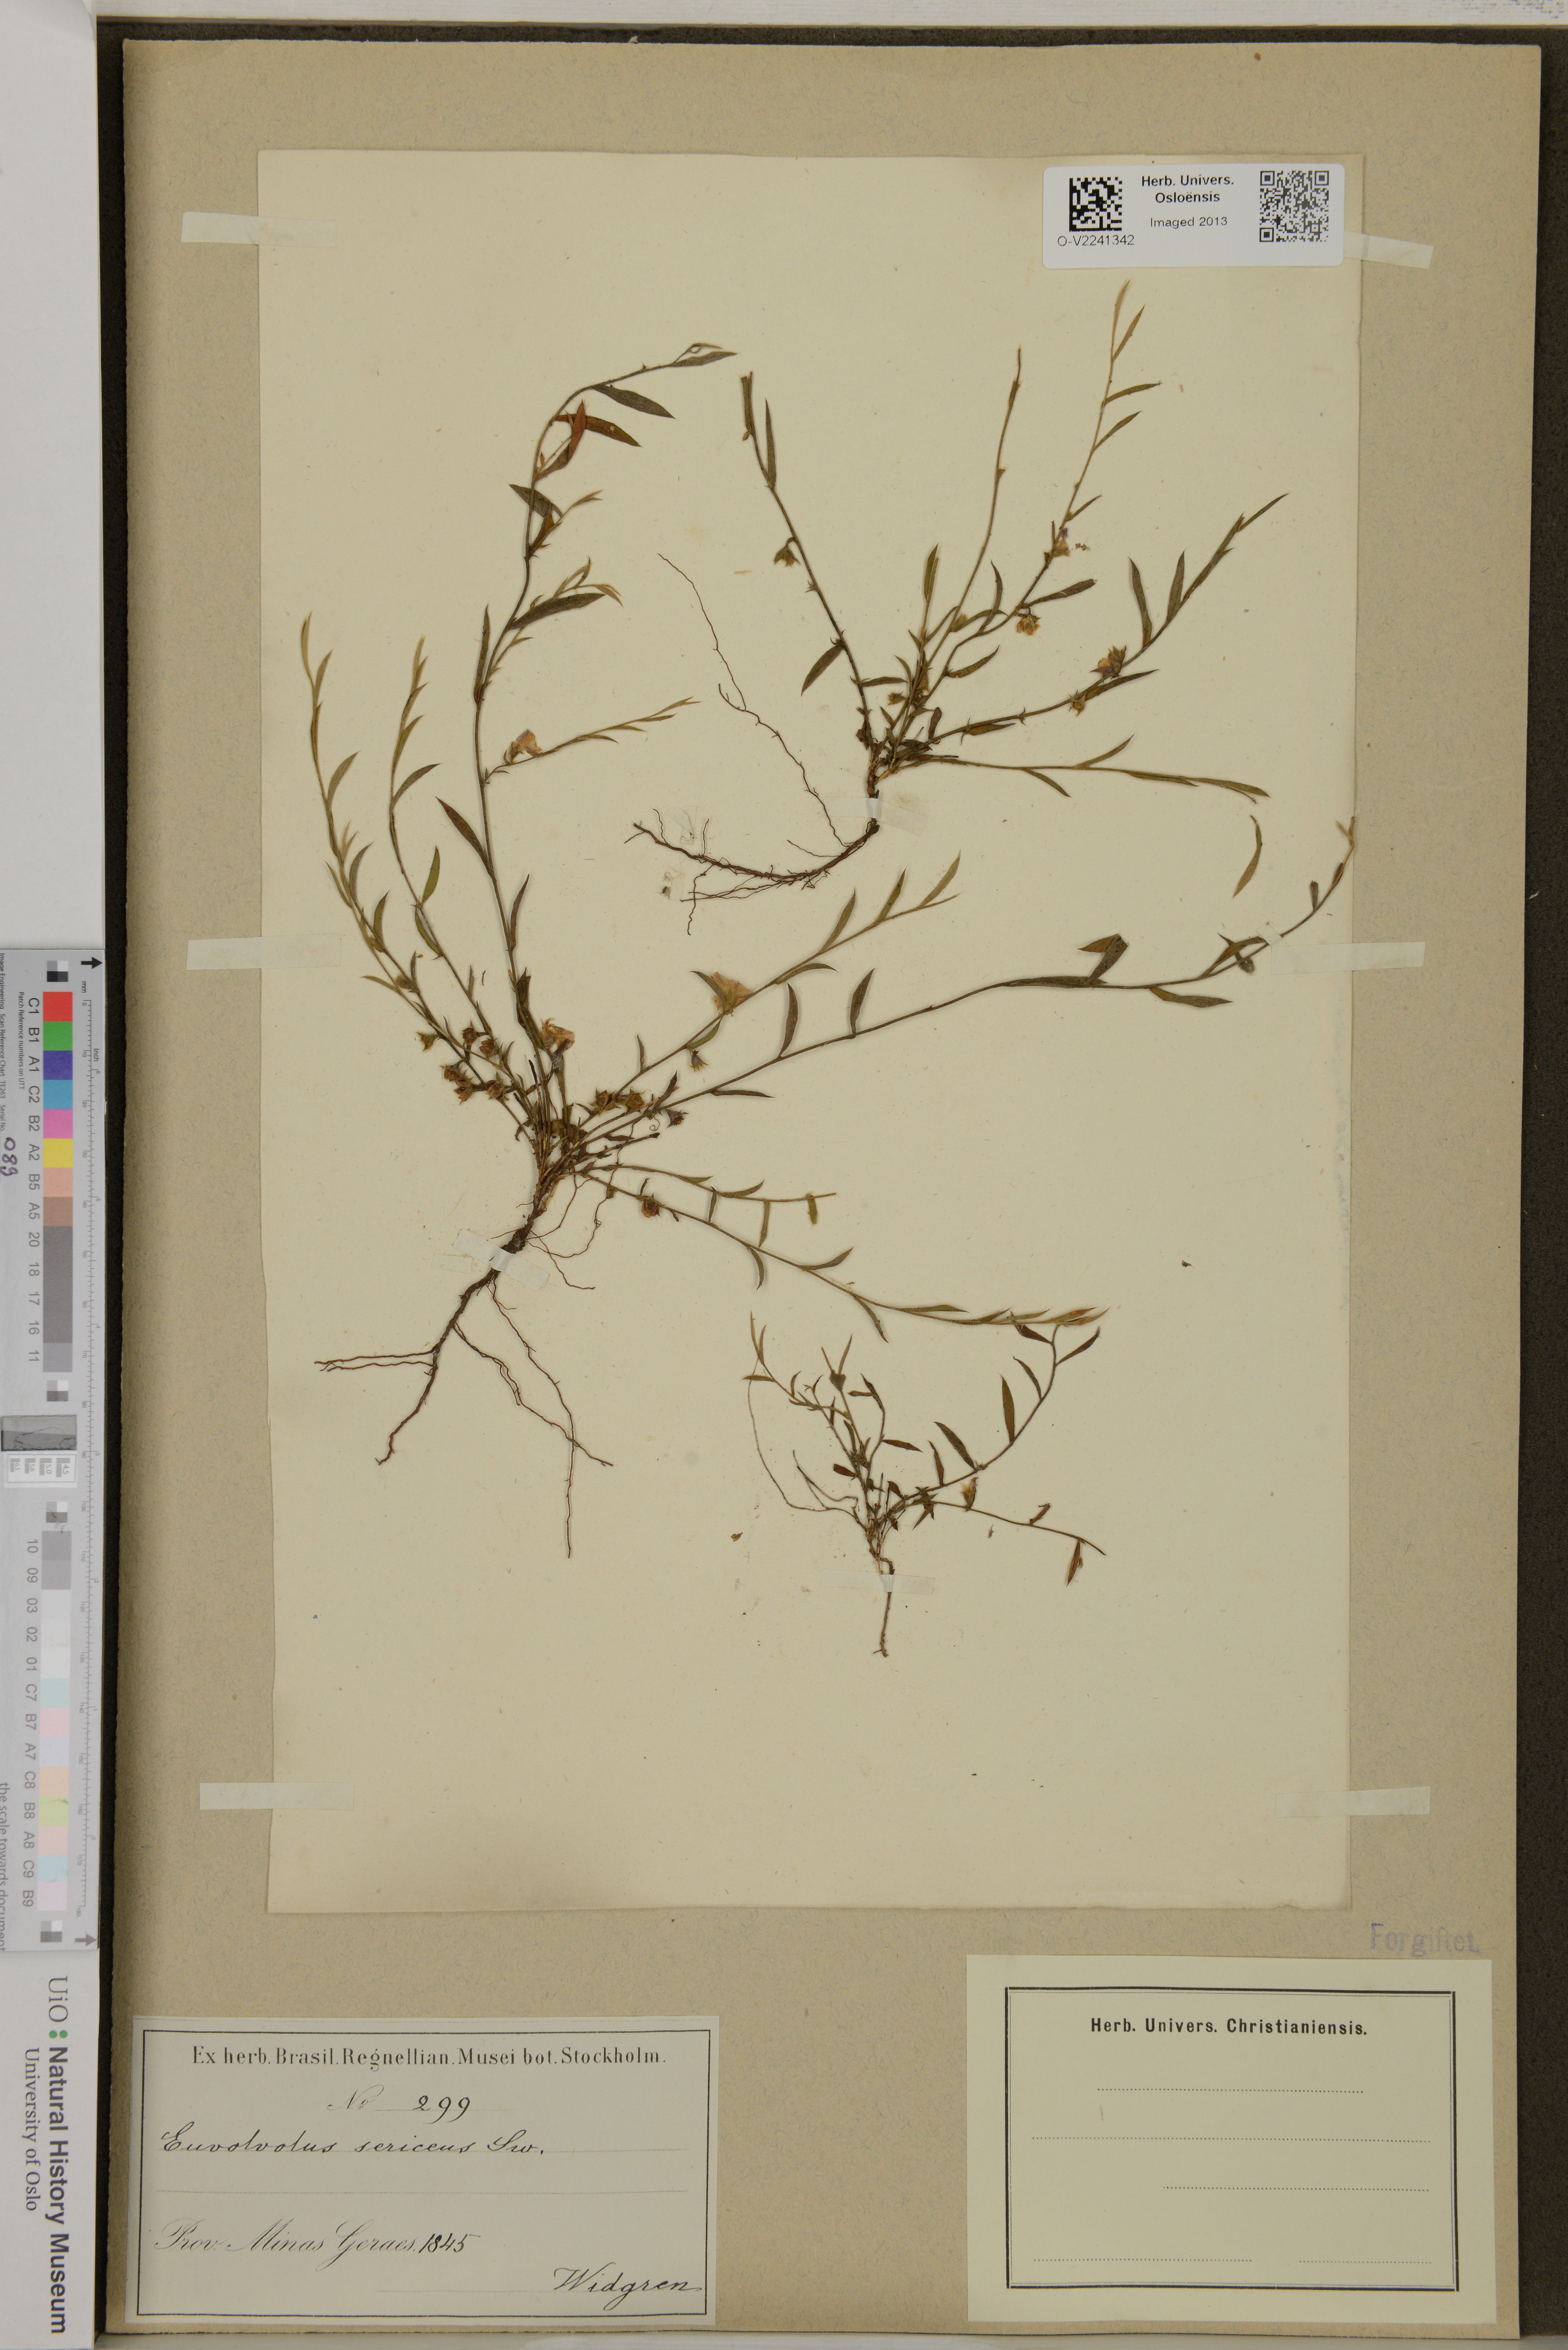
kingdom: Plantae
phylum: Tracheophyta
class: Magnoliopsida
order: Solanales
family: Convolvulaceae
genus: Evolvulus
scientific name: Evolvulus sericeus
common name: Blue dots
